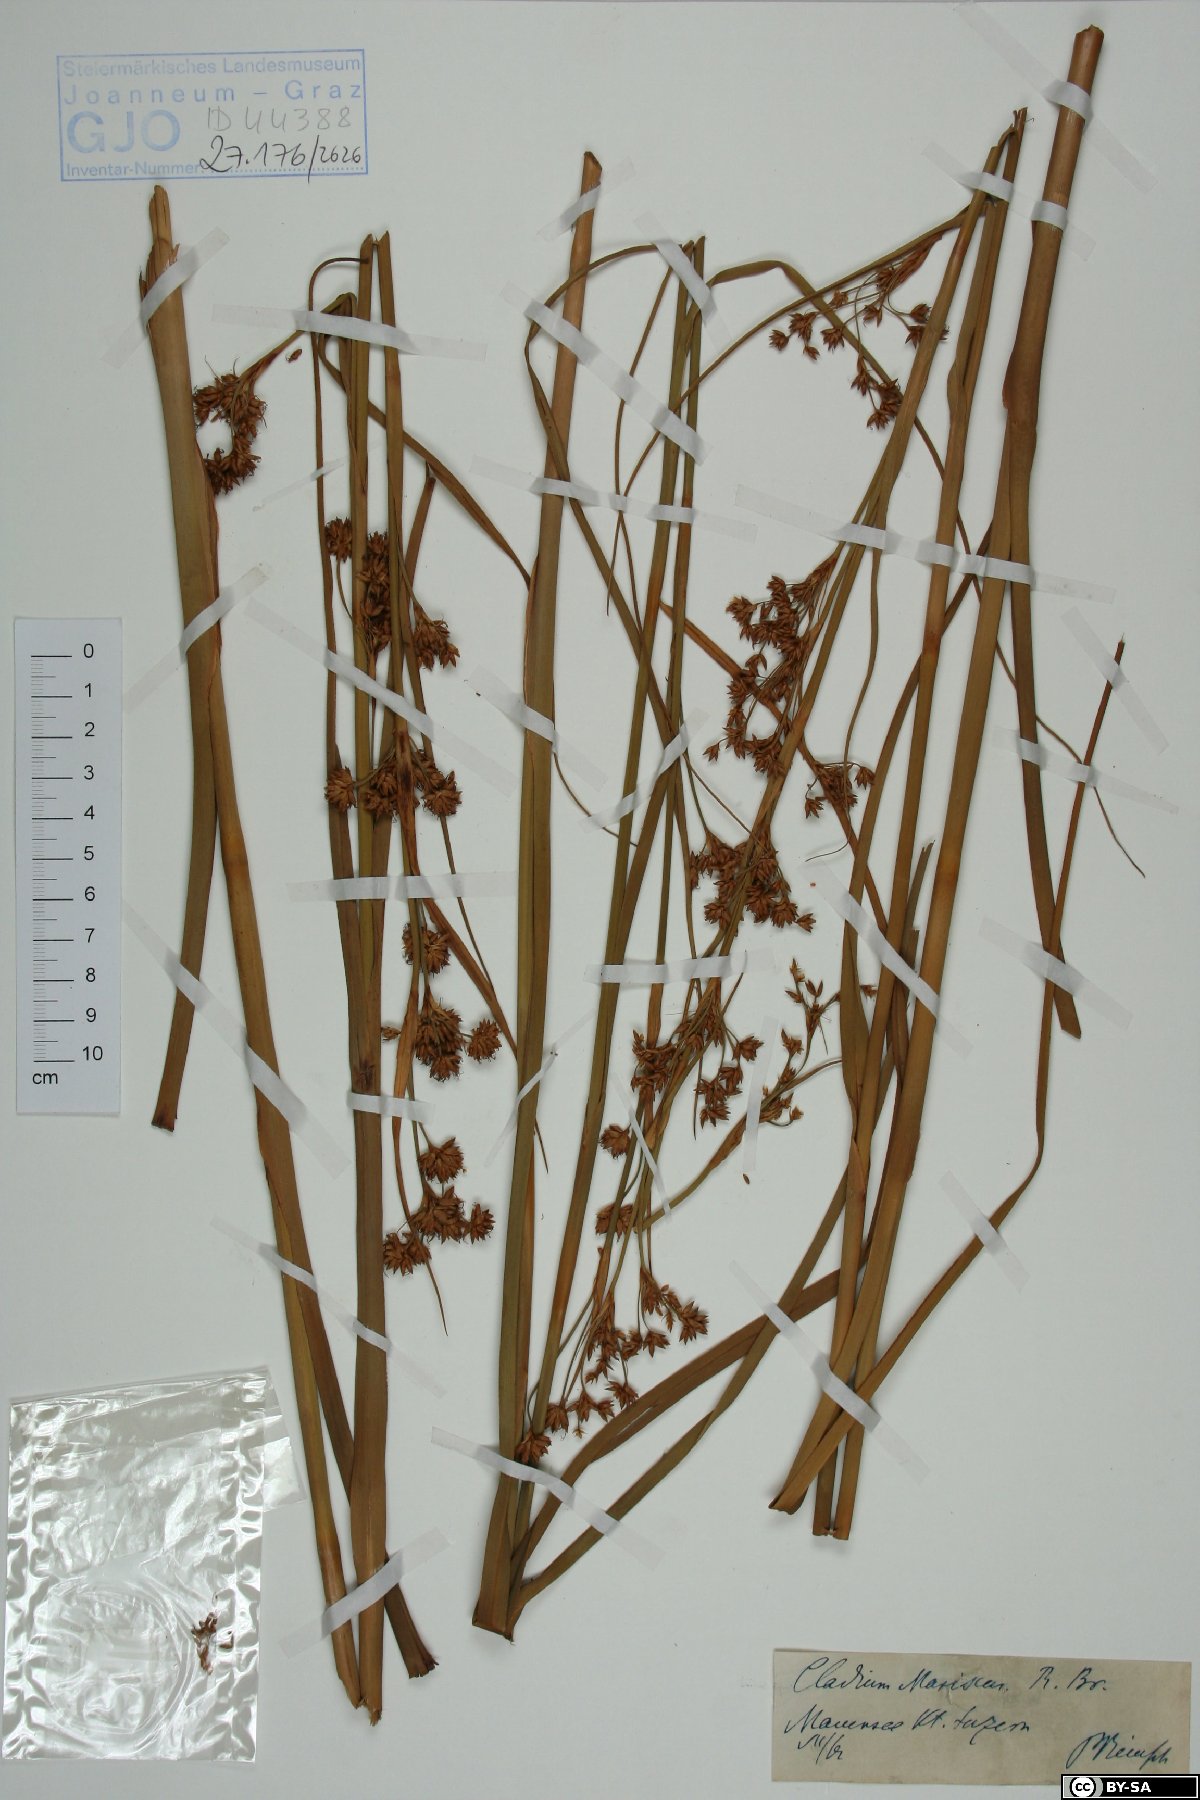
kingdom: Plantae
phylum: Tracheophyta
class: Liliopsida
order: Poales
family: Cyperaceae
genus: Cladium
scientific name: Cladium mariscus
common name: Great fen-sedge
